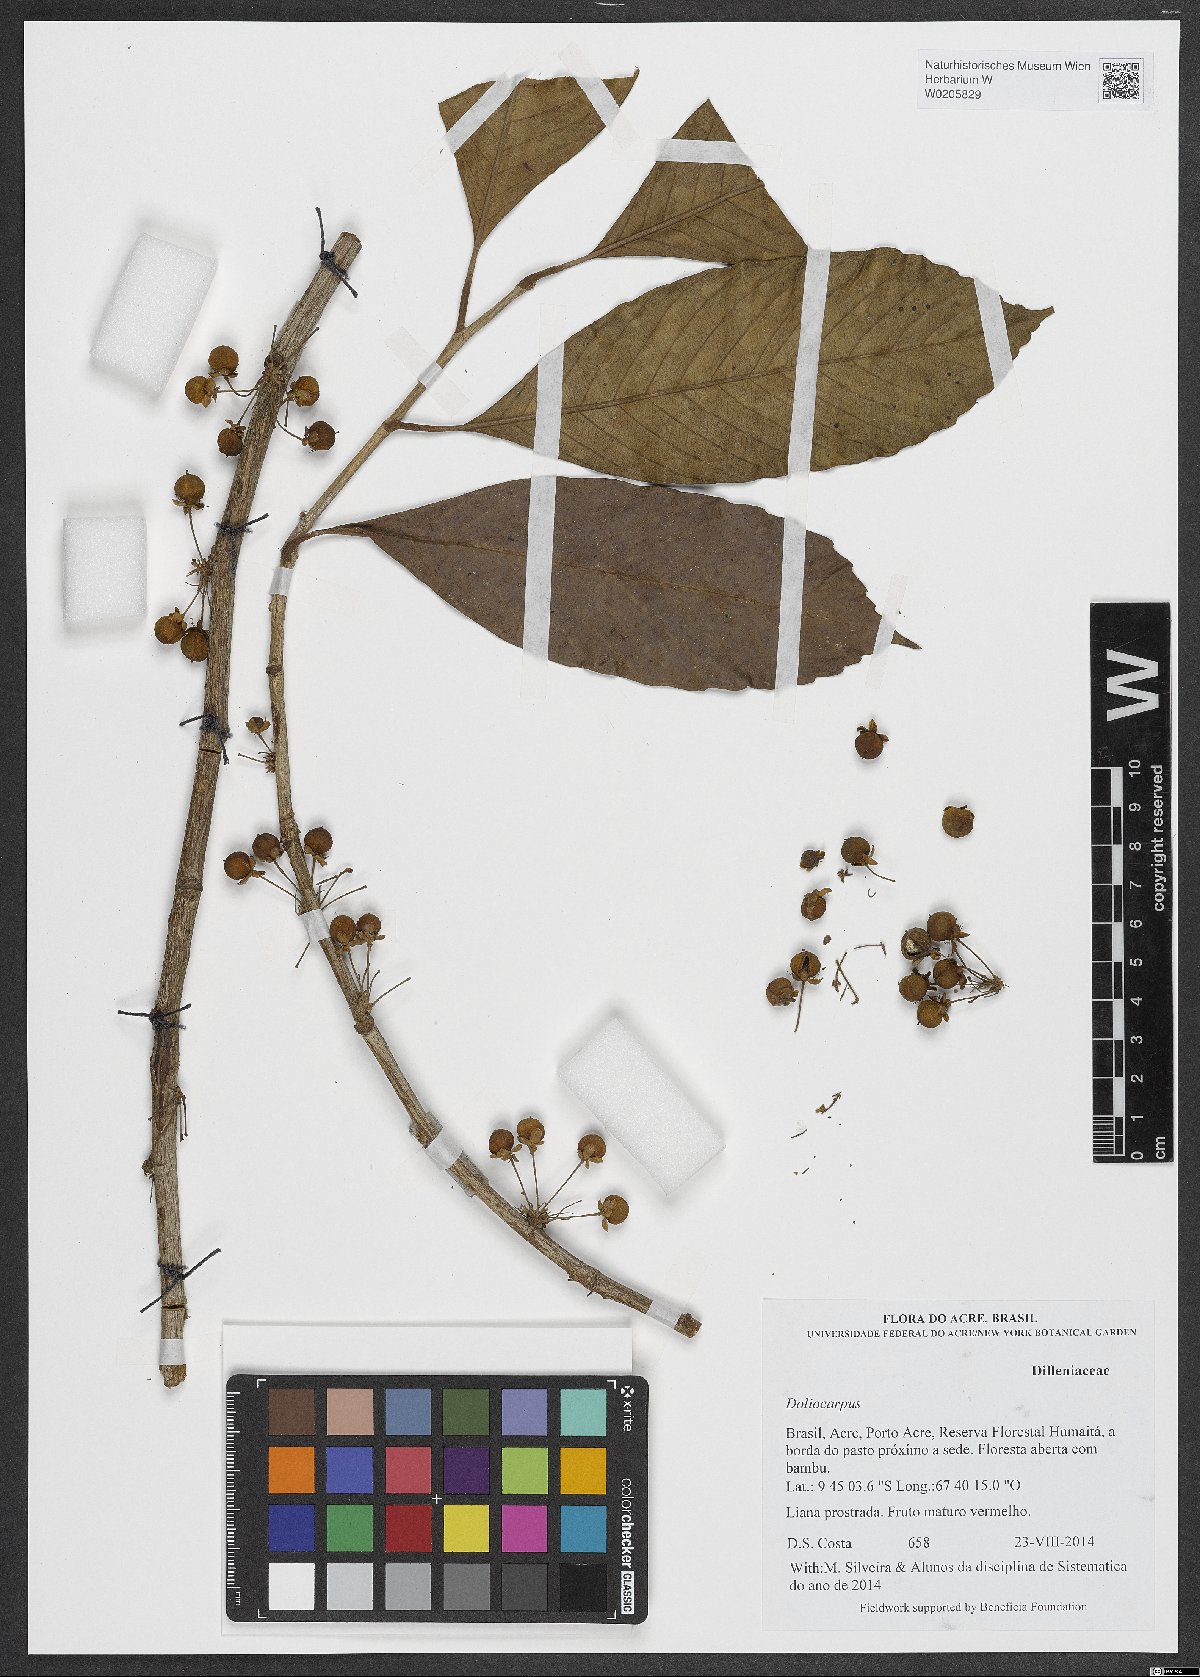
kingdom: Plantae
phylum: Tracheophyta
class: Magnoliopsida
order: Dilleniales
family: Dilleniaceae
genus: Doliocarpus
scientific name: Doliocarpus
